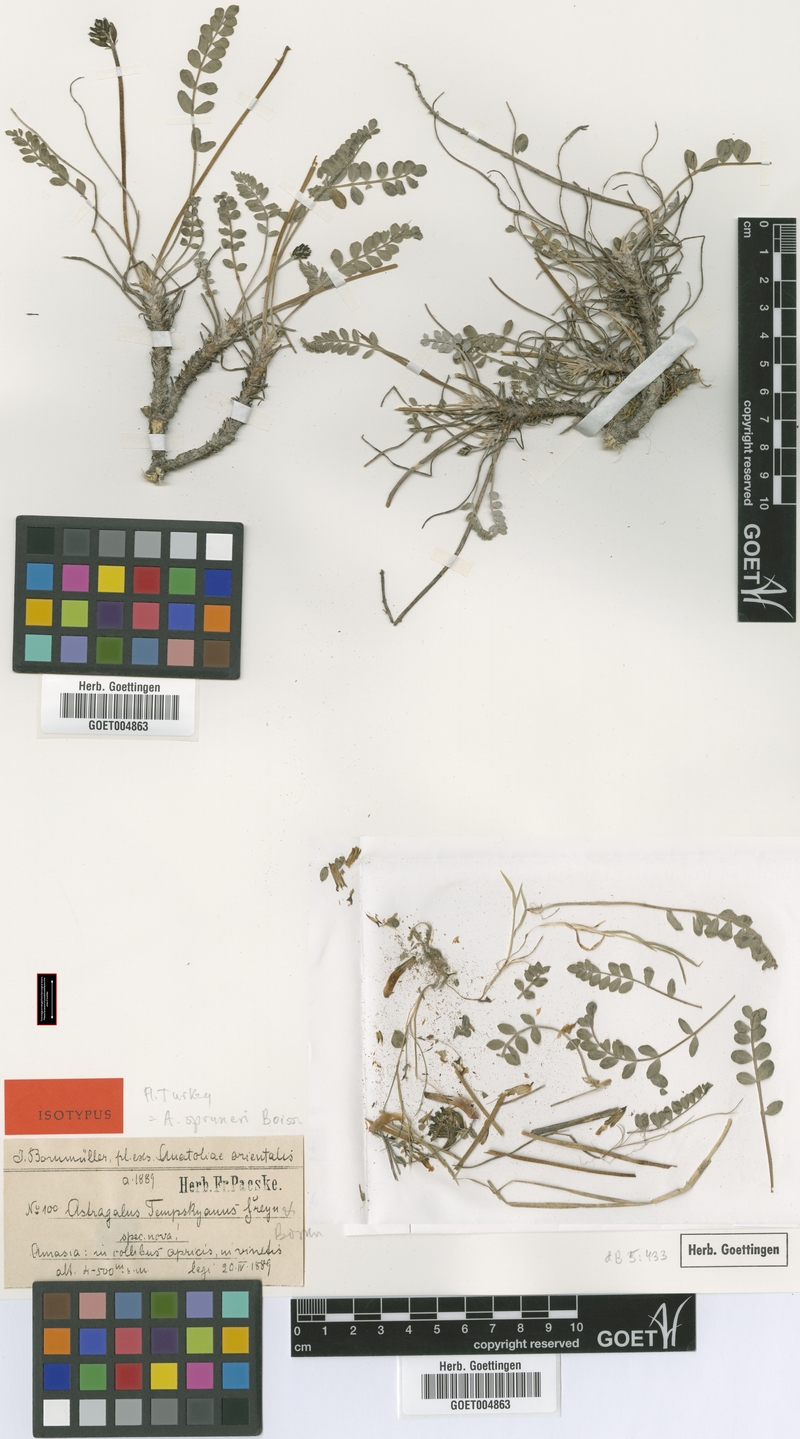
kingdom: Plantae
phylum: Tracheophyta
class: Magnoliopsida
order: Fabales
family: Fabaceae
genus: Astragalus
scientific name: Astragalus spruneri
